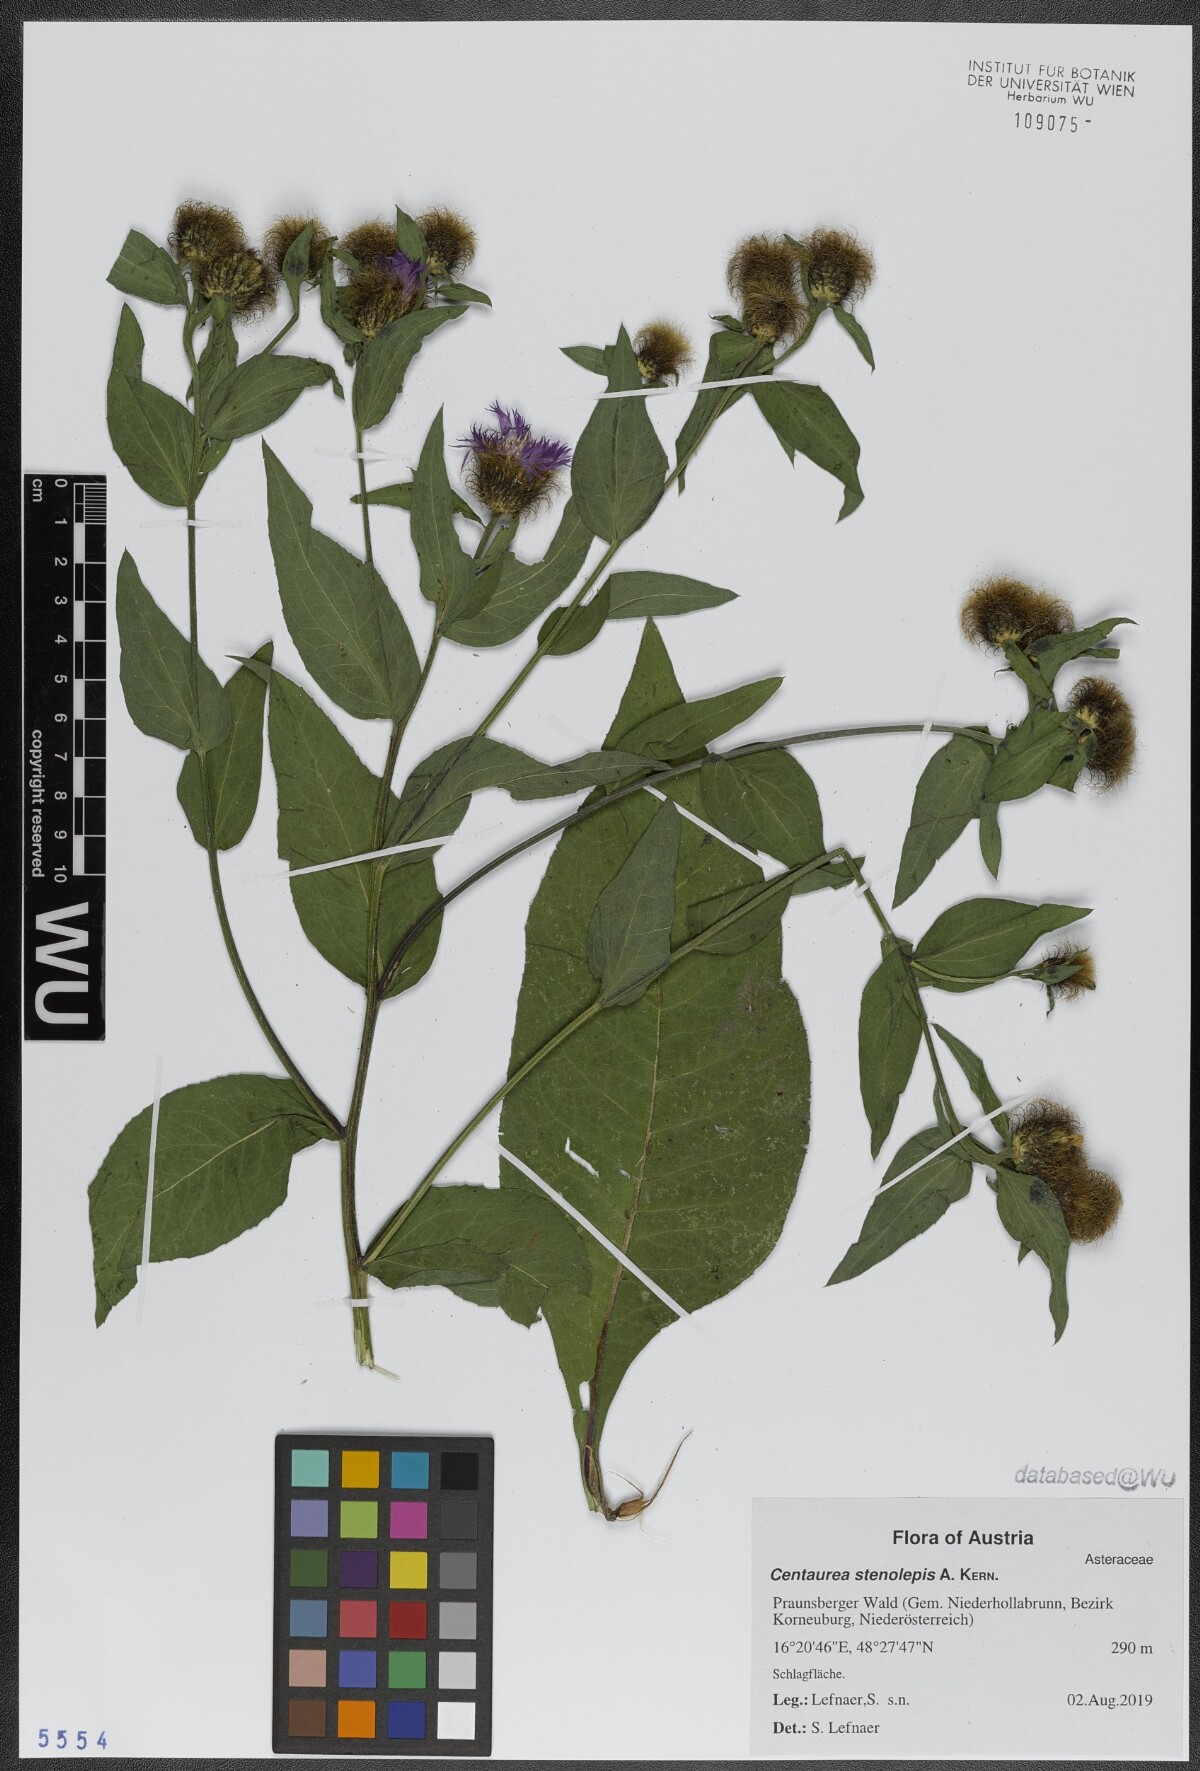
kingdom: Plantae
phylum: Tracheophyta
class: Magnoliopsida
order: Asterales
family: Asteraceae
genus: Centaurea
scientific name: Centaurea stenolepis
